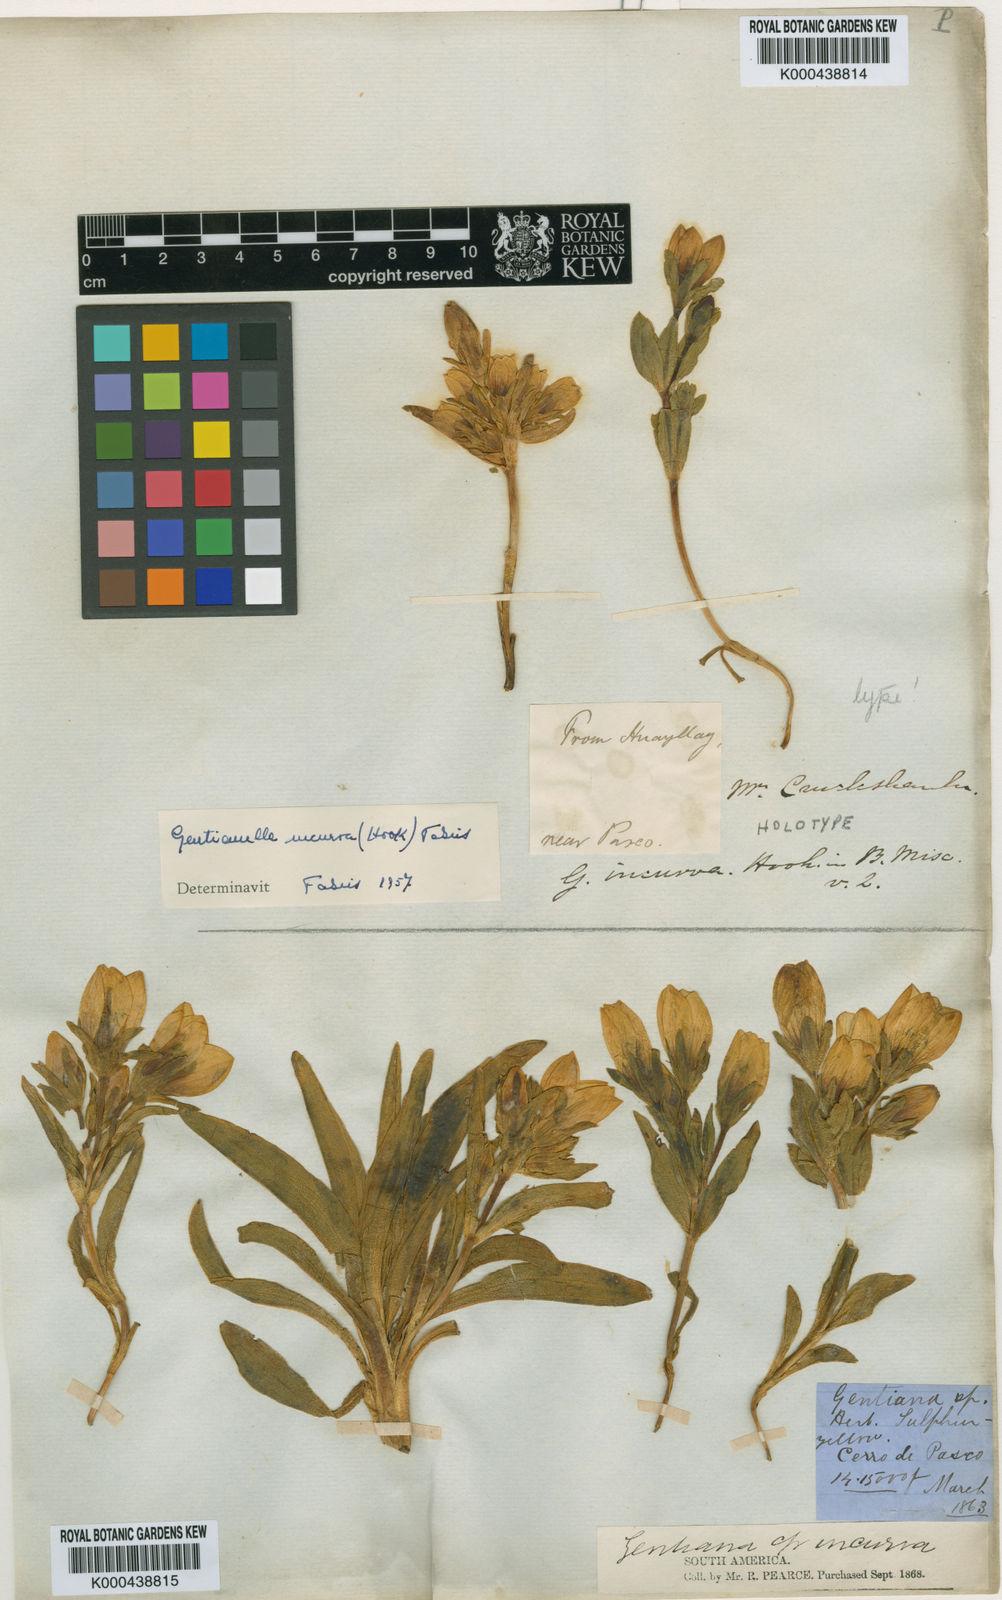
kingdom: Plantae
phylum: Tracheophyta
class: Magnoliopsida
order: Gentianales
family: Gentianaceae
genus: Gentianella
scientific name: Gentianella incurva
